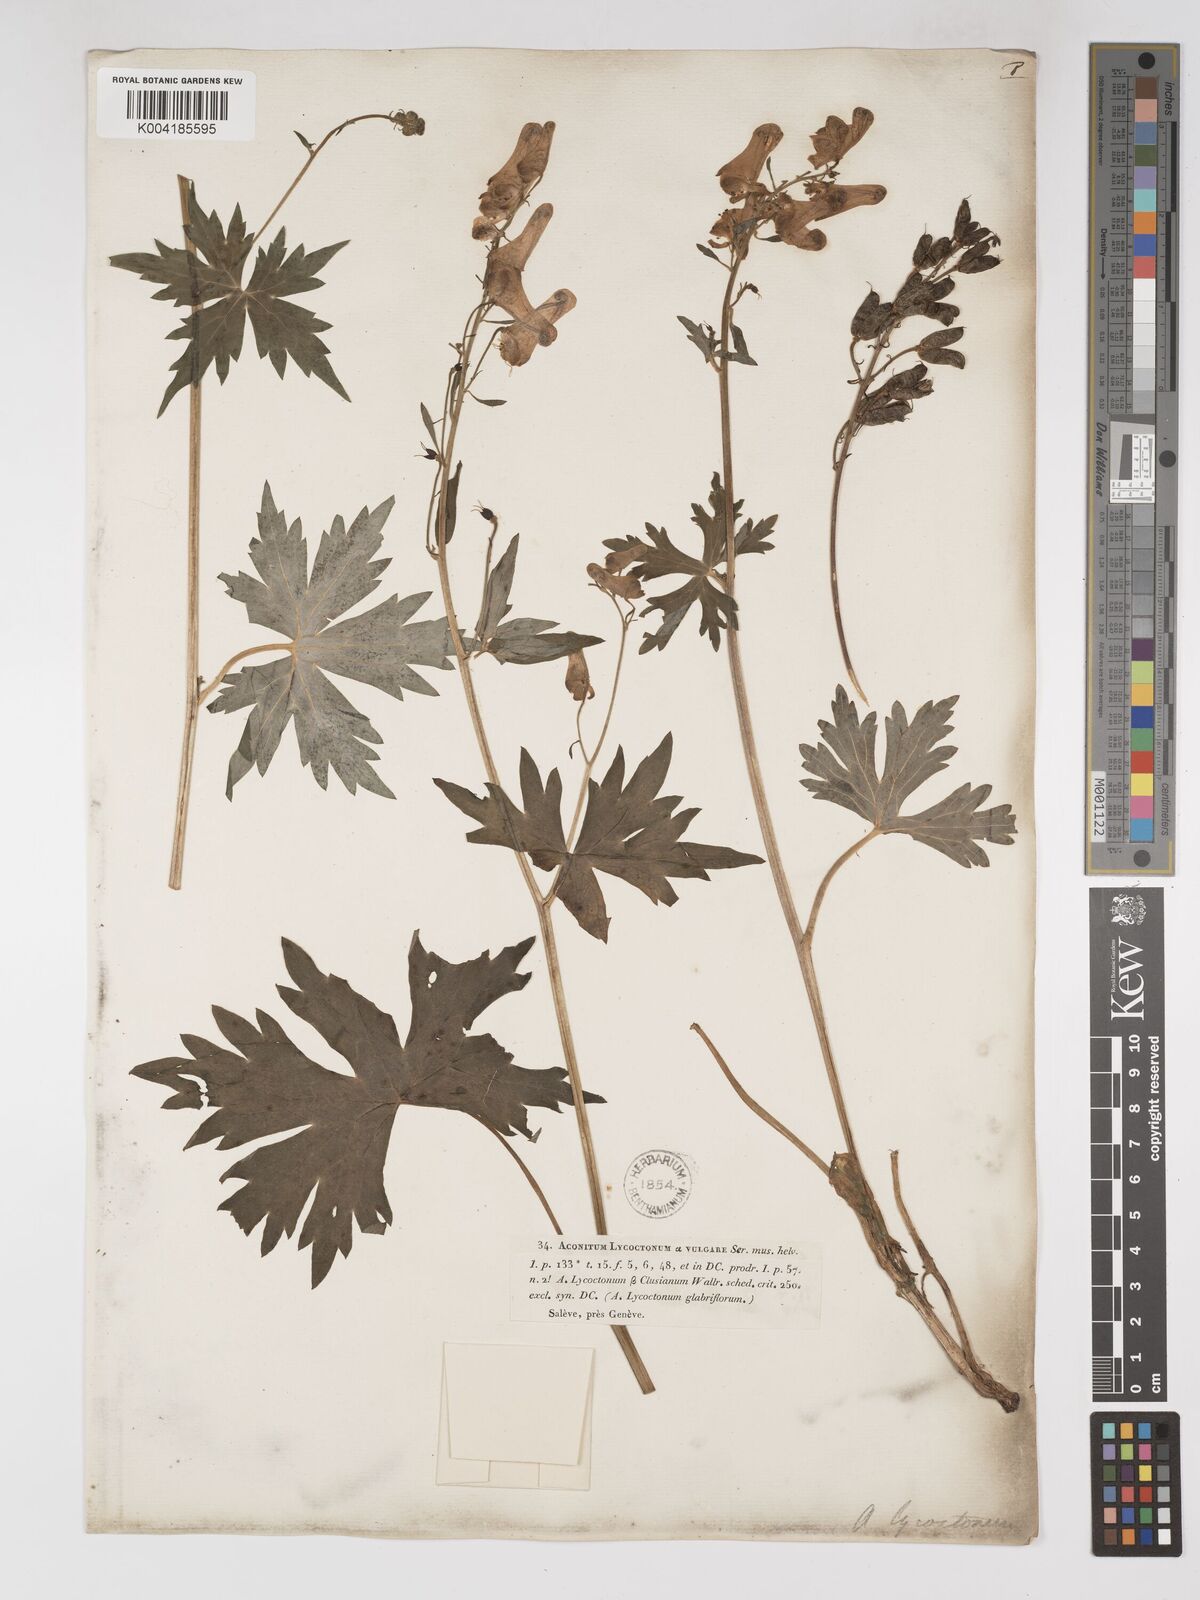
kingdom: Plantae
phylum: Tracheophyta
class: Magnoliopsida
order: Ranunculales
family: Ranunculaceae
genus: Aconitum
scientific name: Aconitum lycoctonum
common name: Wolf's-bane
